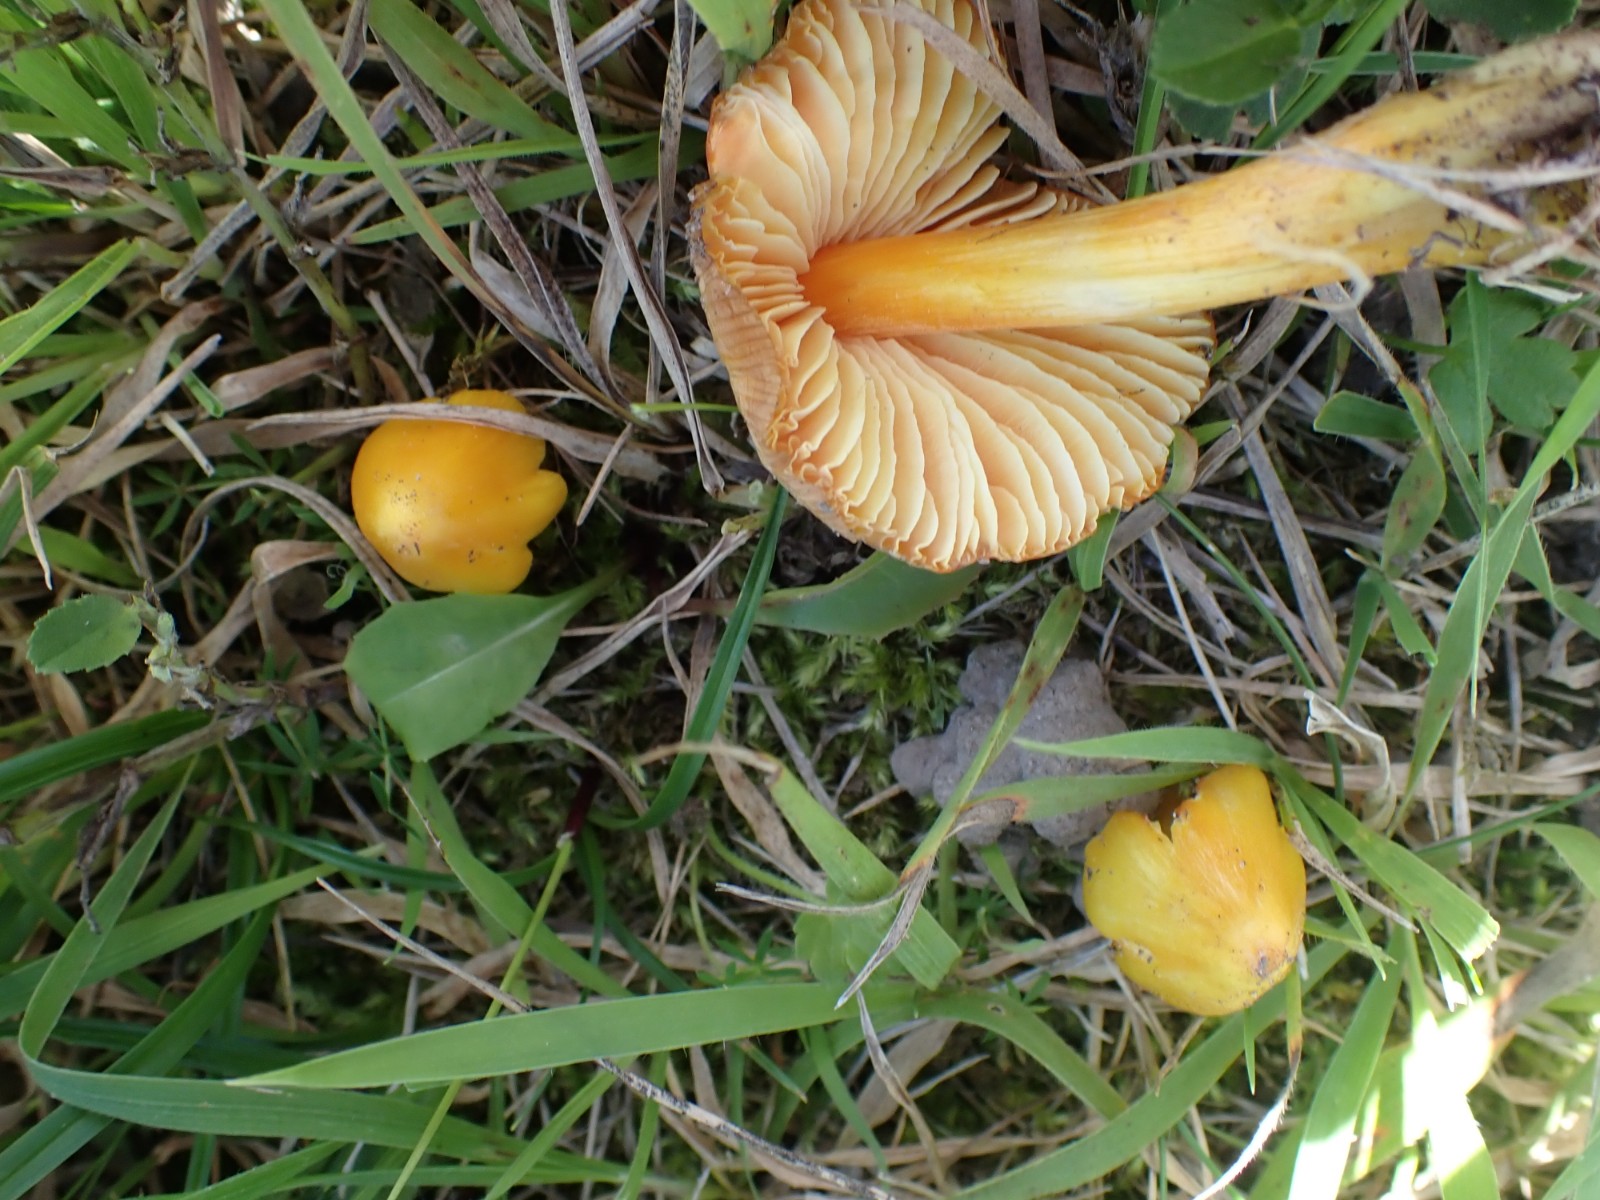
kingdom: Fungi
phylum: Basidiomycota
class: Agaricomycetes
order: Agaricales
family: Hygrophoraceae
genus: Hygrocybe
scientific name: Hygrocybe acutoconica
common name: Konrads vokshat
